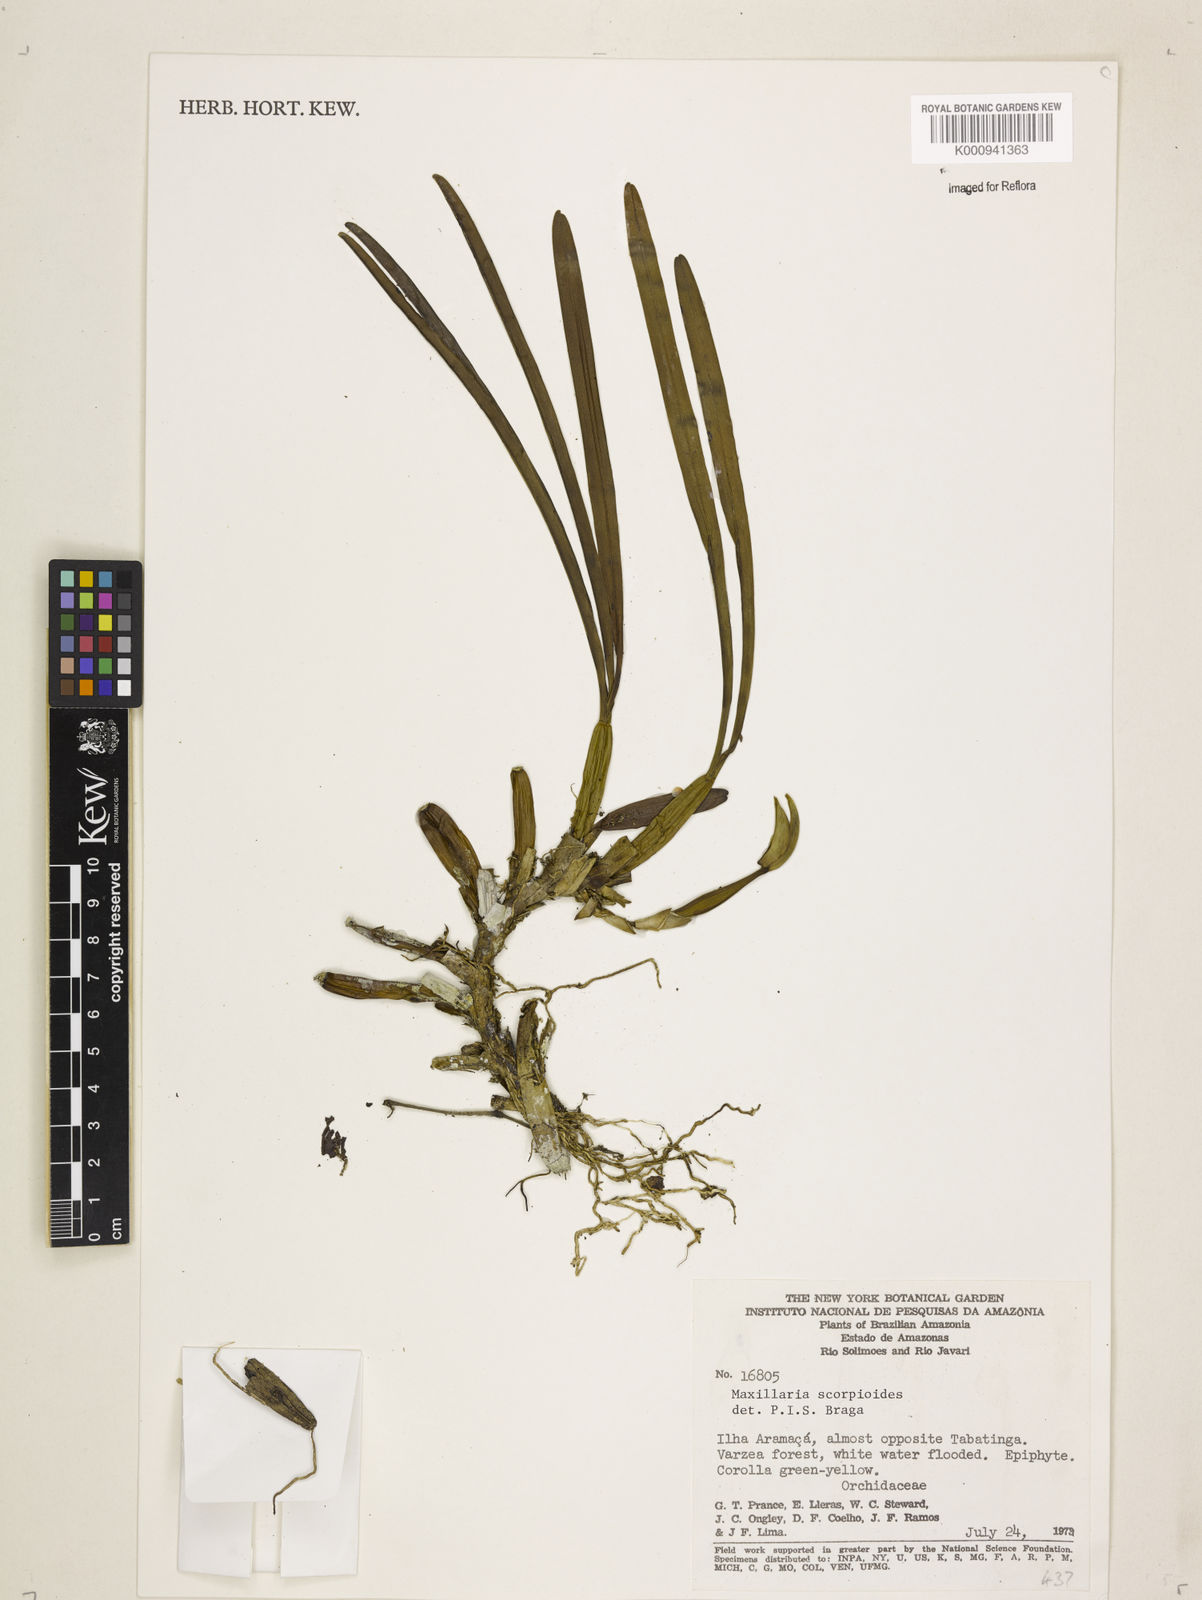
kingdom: Plantae
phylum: Tracheophyta
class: Liliopsida
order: Asparagales
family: Orchidaceae
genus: Maxillaria
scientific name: Maxillaria
